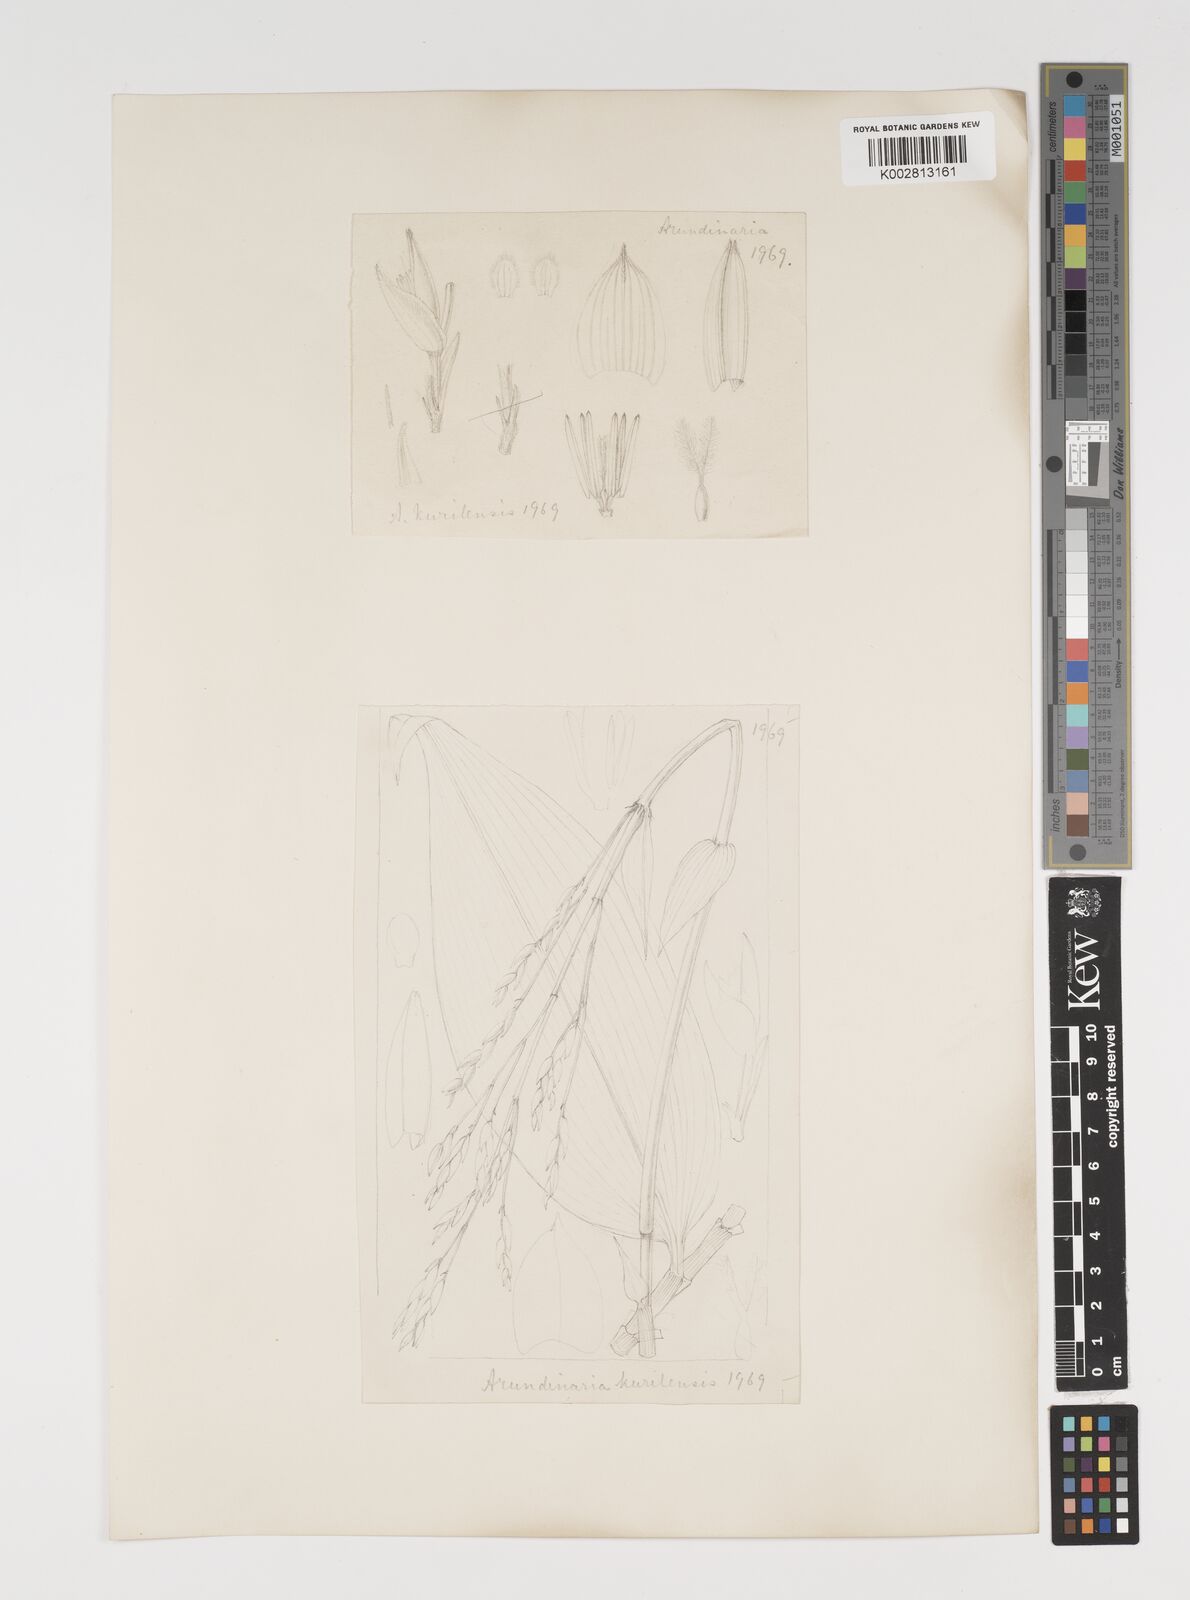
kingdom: Plantae
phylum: Tracheophyta
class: Liliopsida
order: Poales
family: Poaceae
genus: Sasa
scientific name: Sasa palmata
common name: Broad-leaved bamboo
